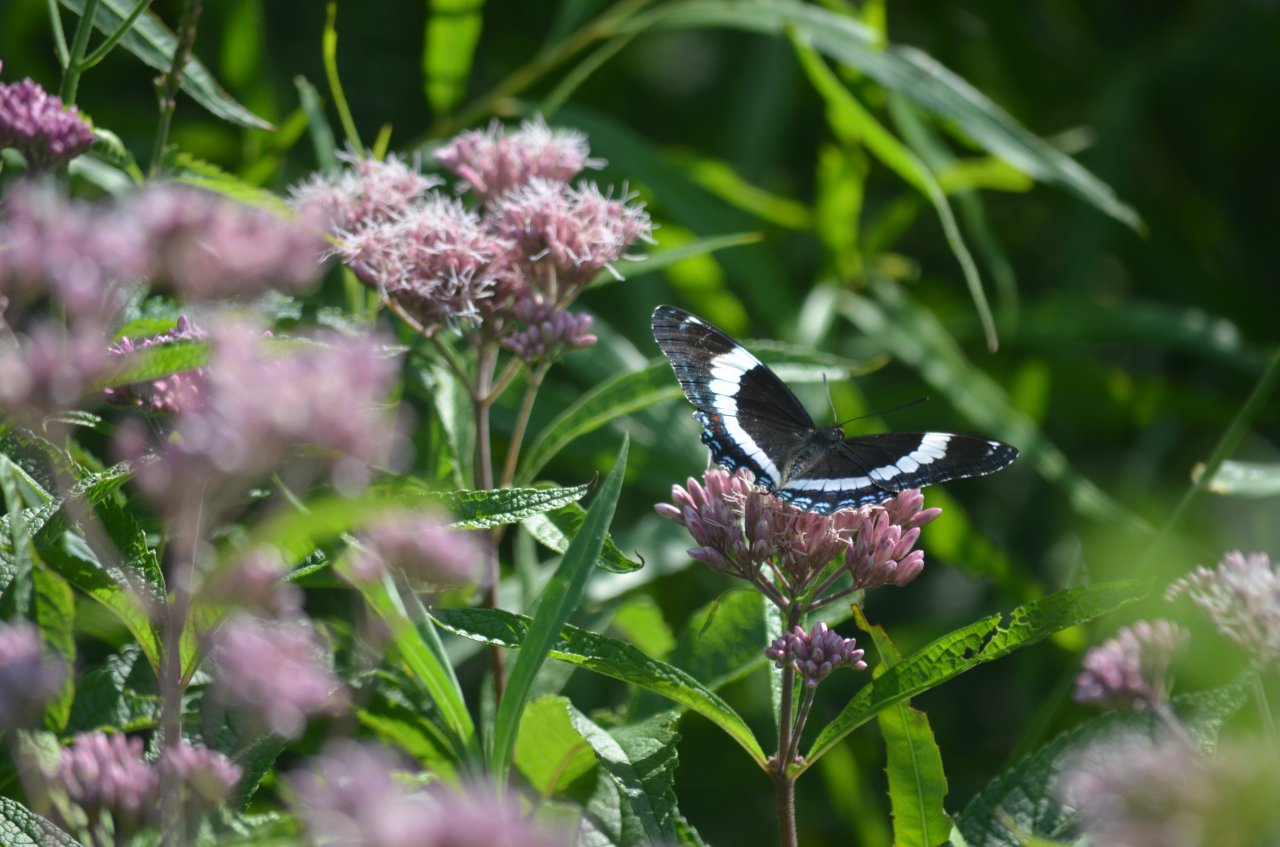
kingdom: Animalia
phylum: Arthropoda
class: Insecta
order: Lepidoptera
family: Nymphalidae
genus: Limenitis
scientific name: Limenitis arthemis
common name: Red-spotted Admiral
